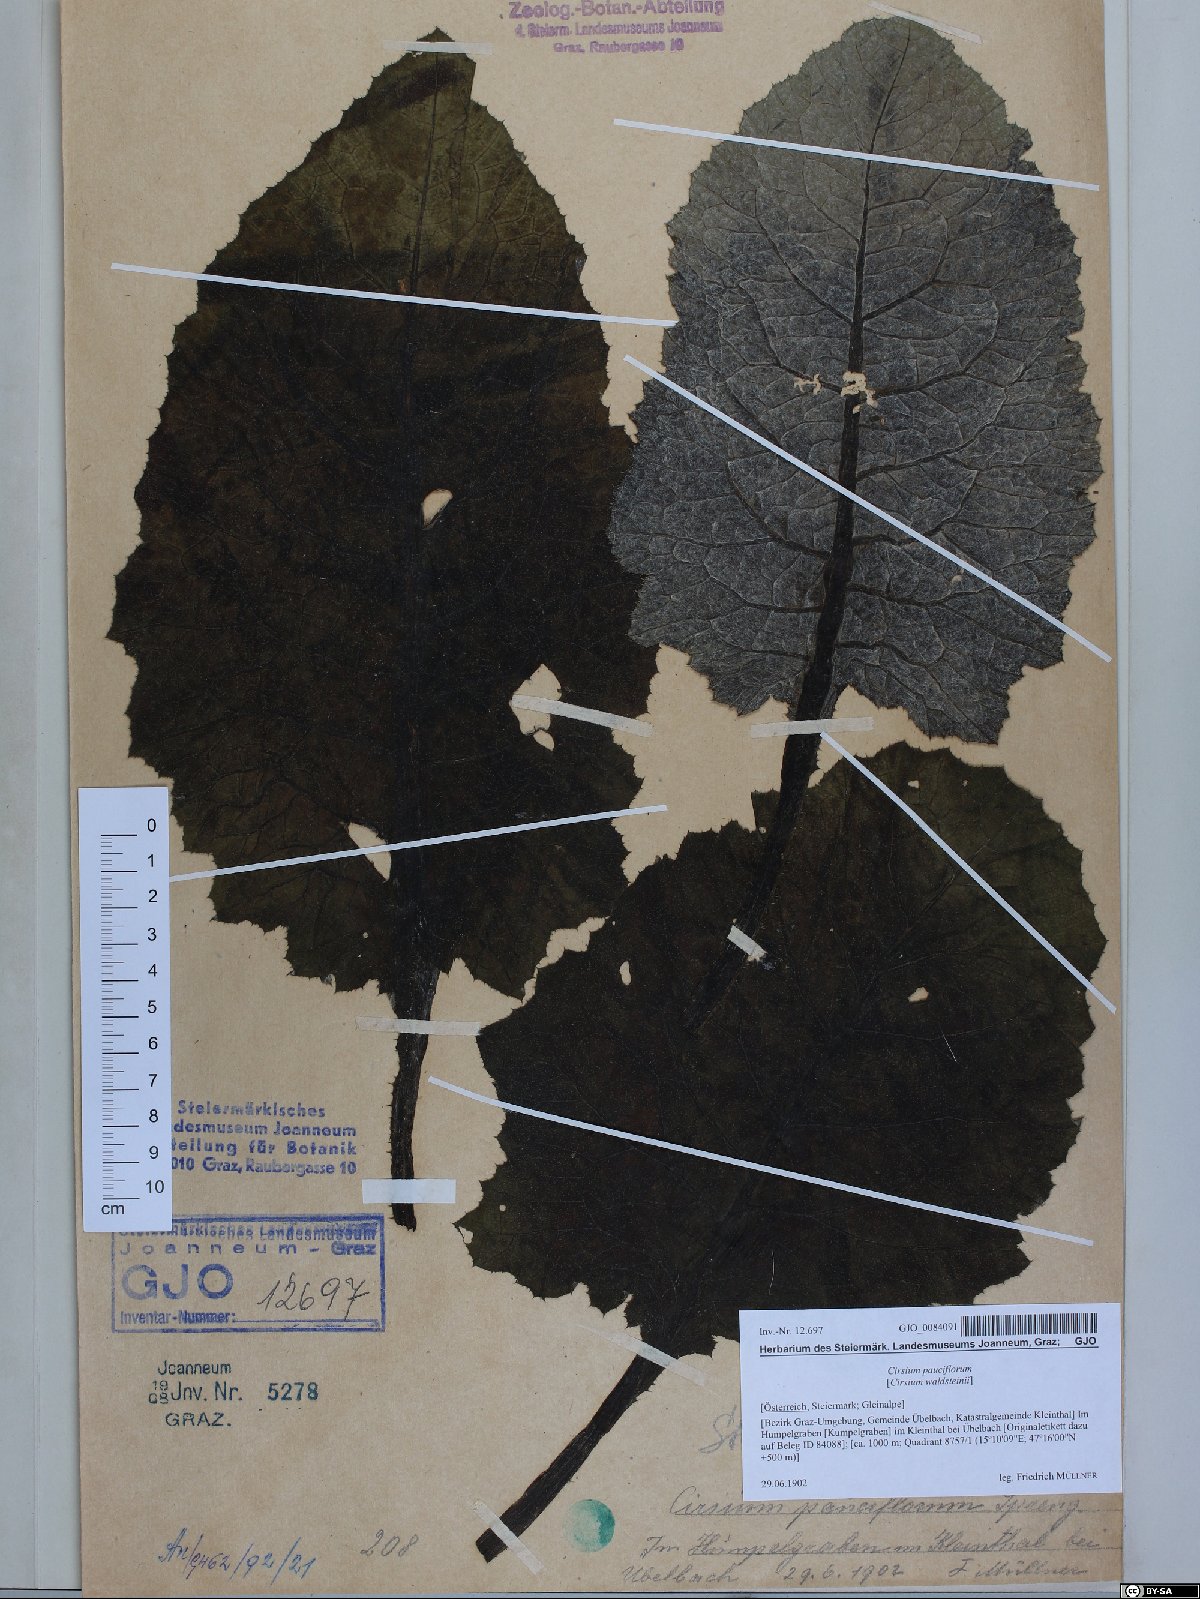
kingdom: Plantae
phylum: Tracheophyta
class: Magnoliopsida
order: Asterales
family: Asteraceae
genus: Cirsium
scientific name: Cirsium greimleri
